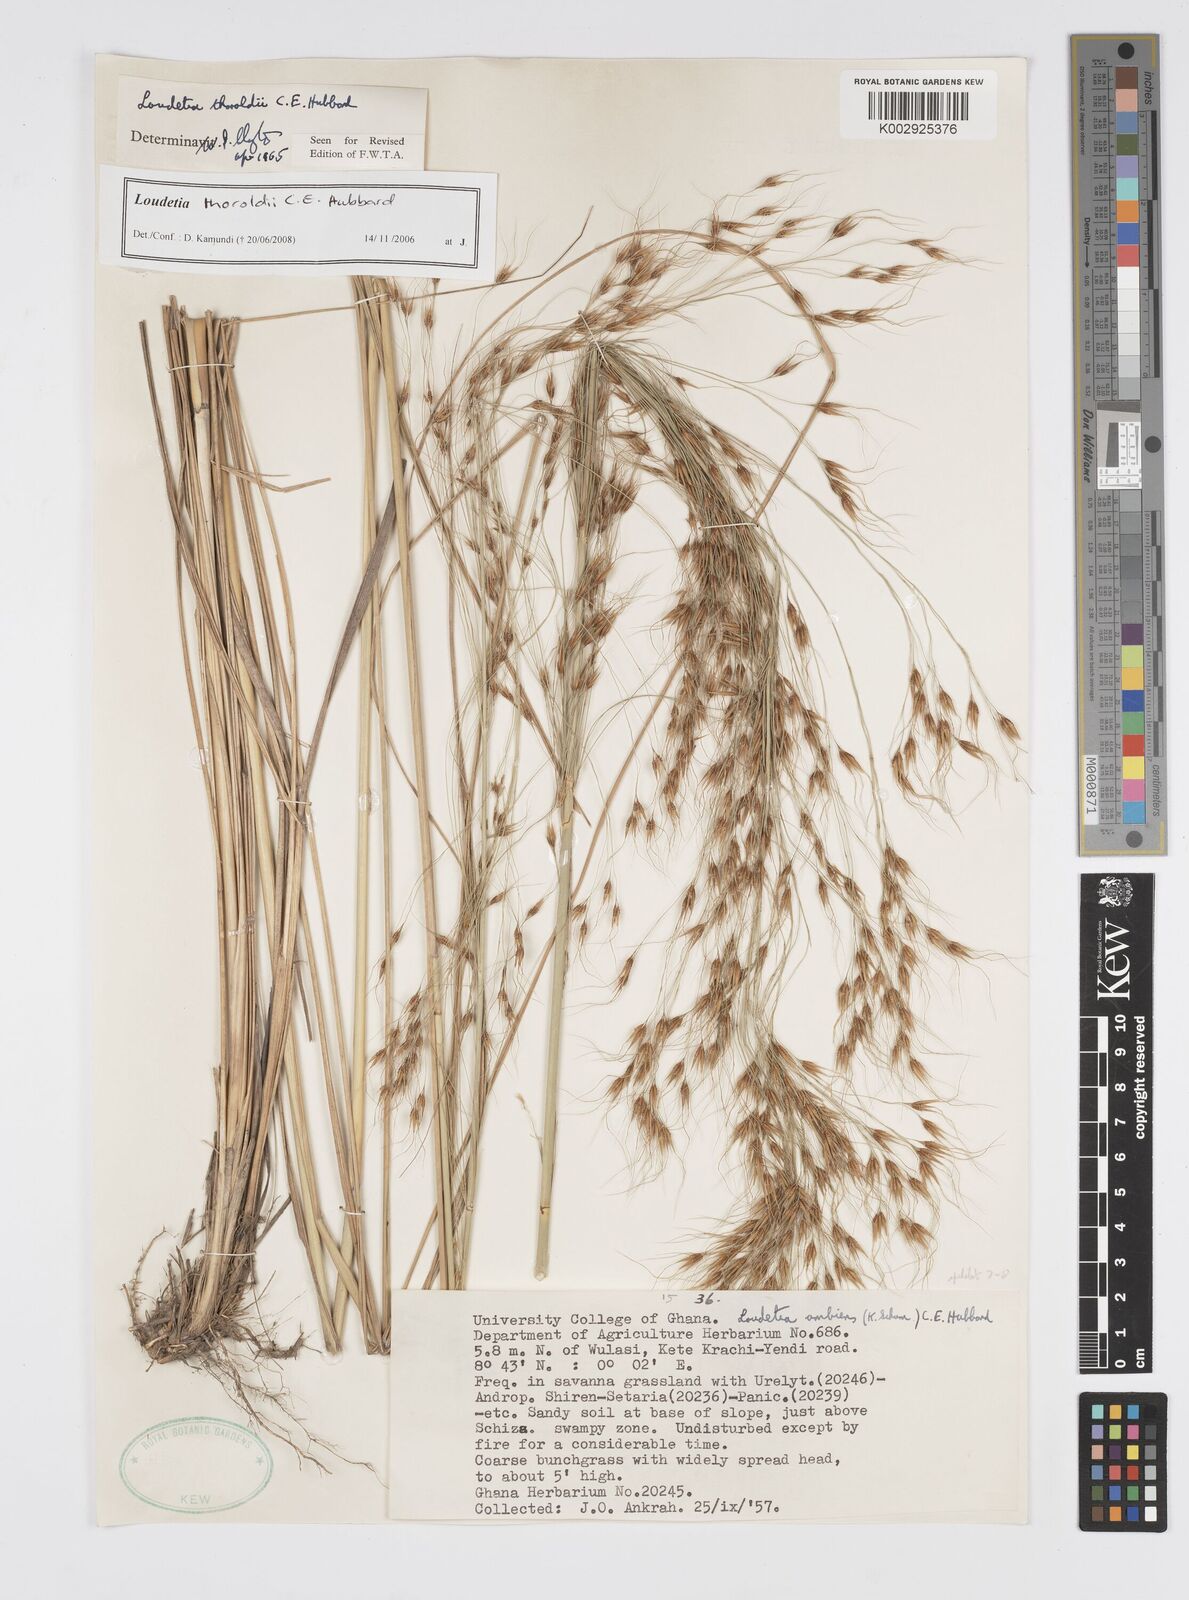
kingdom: Plantae
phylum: Tracheophyta
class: Liliopsida
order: Poales
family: Poaceae
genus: Loudetiopsis
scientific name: Loudetiopsis thoroldii
